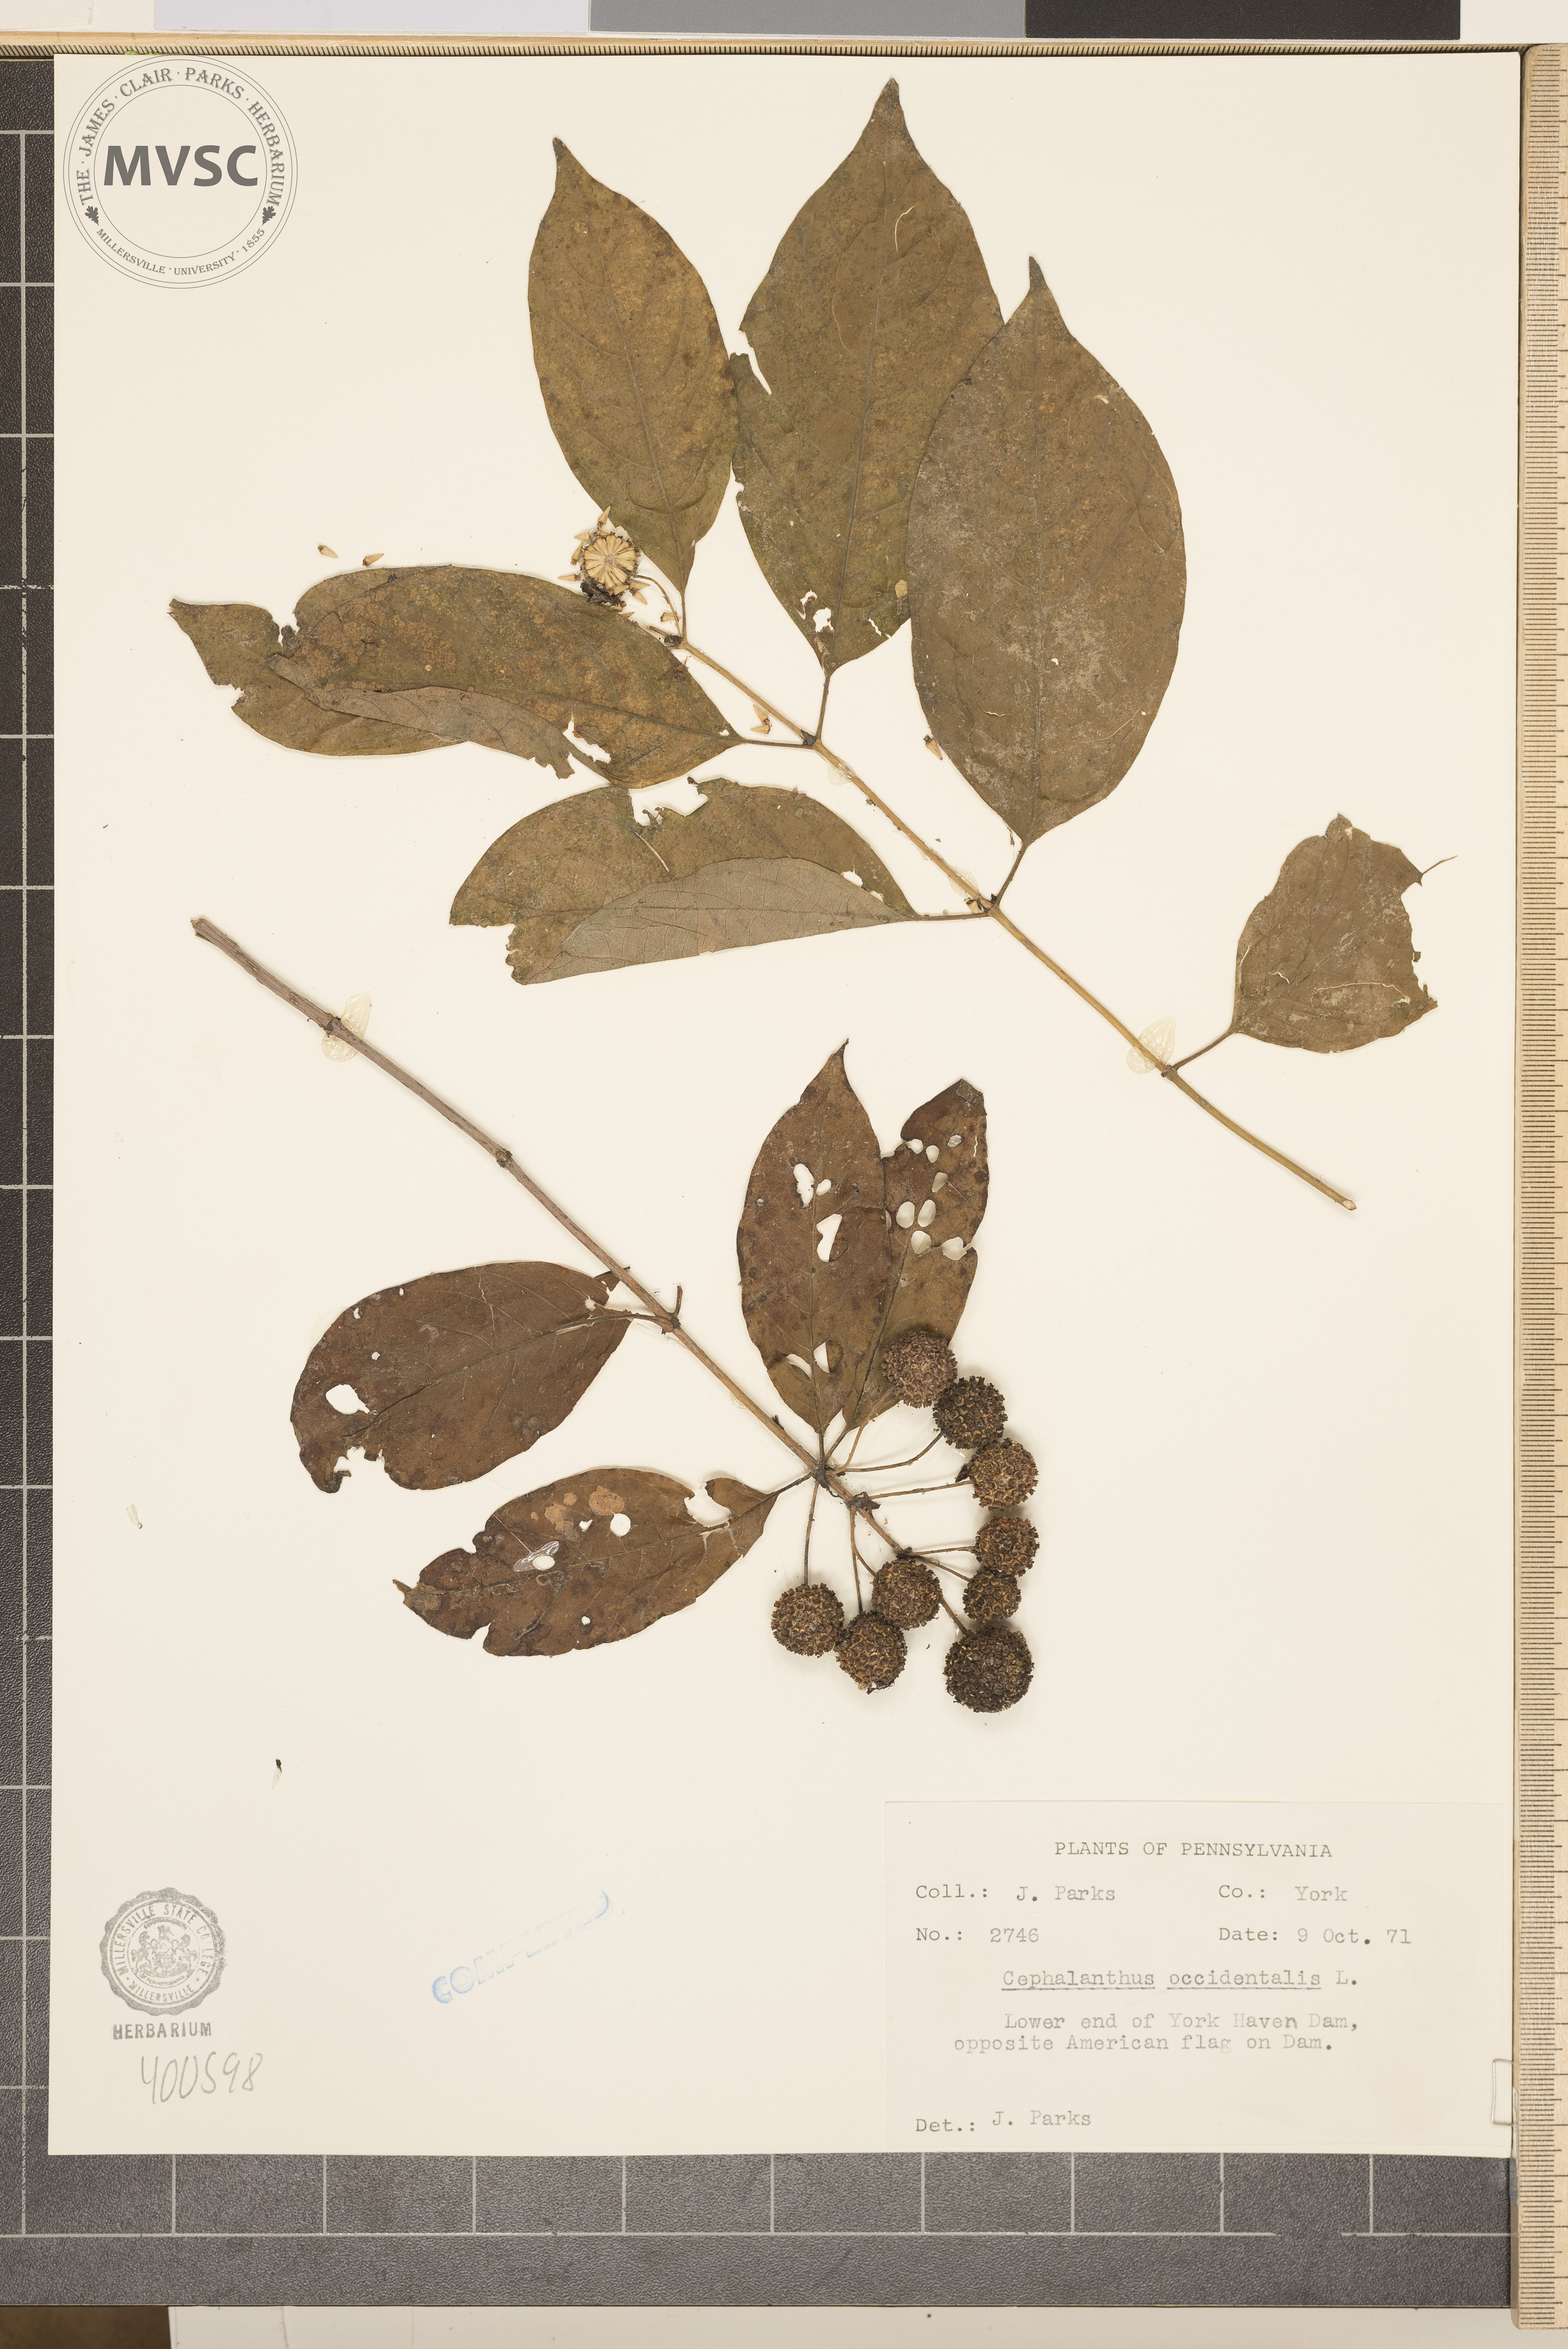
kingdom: Plantae
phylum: Tracheophyta
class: Magnoliopsida
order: Gentianales
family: Rubiaceae
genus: Cephalanthus
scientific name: Cephalanthus occidentalis
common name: buttonbush
